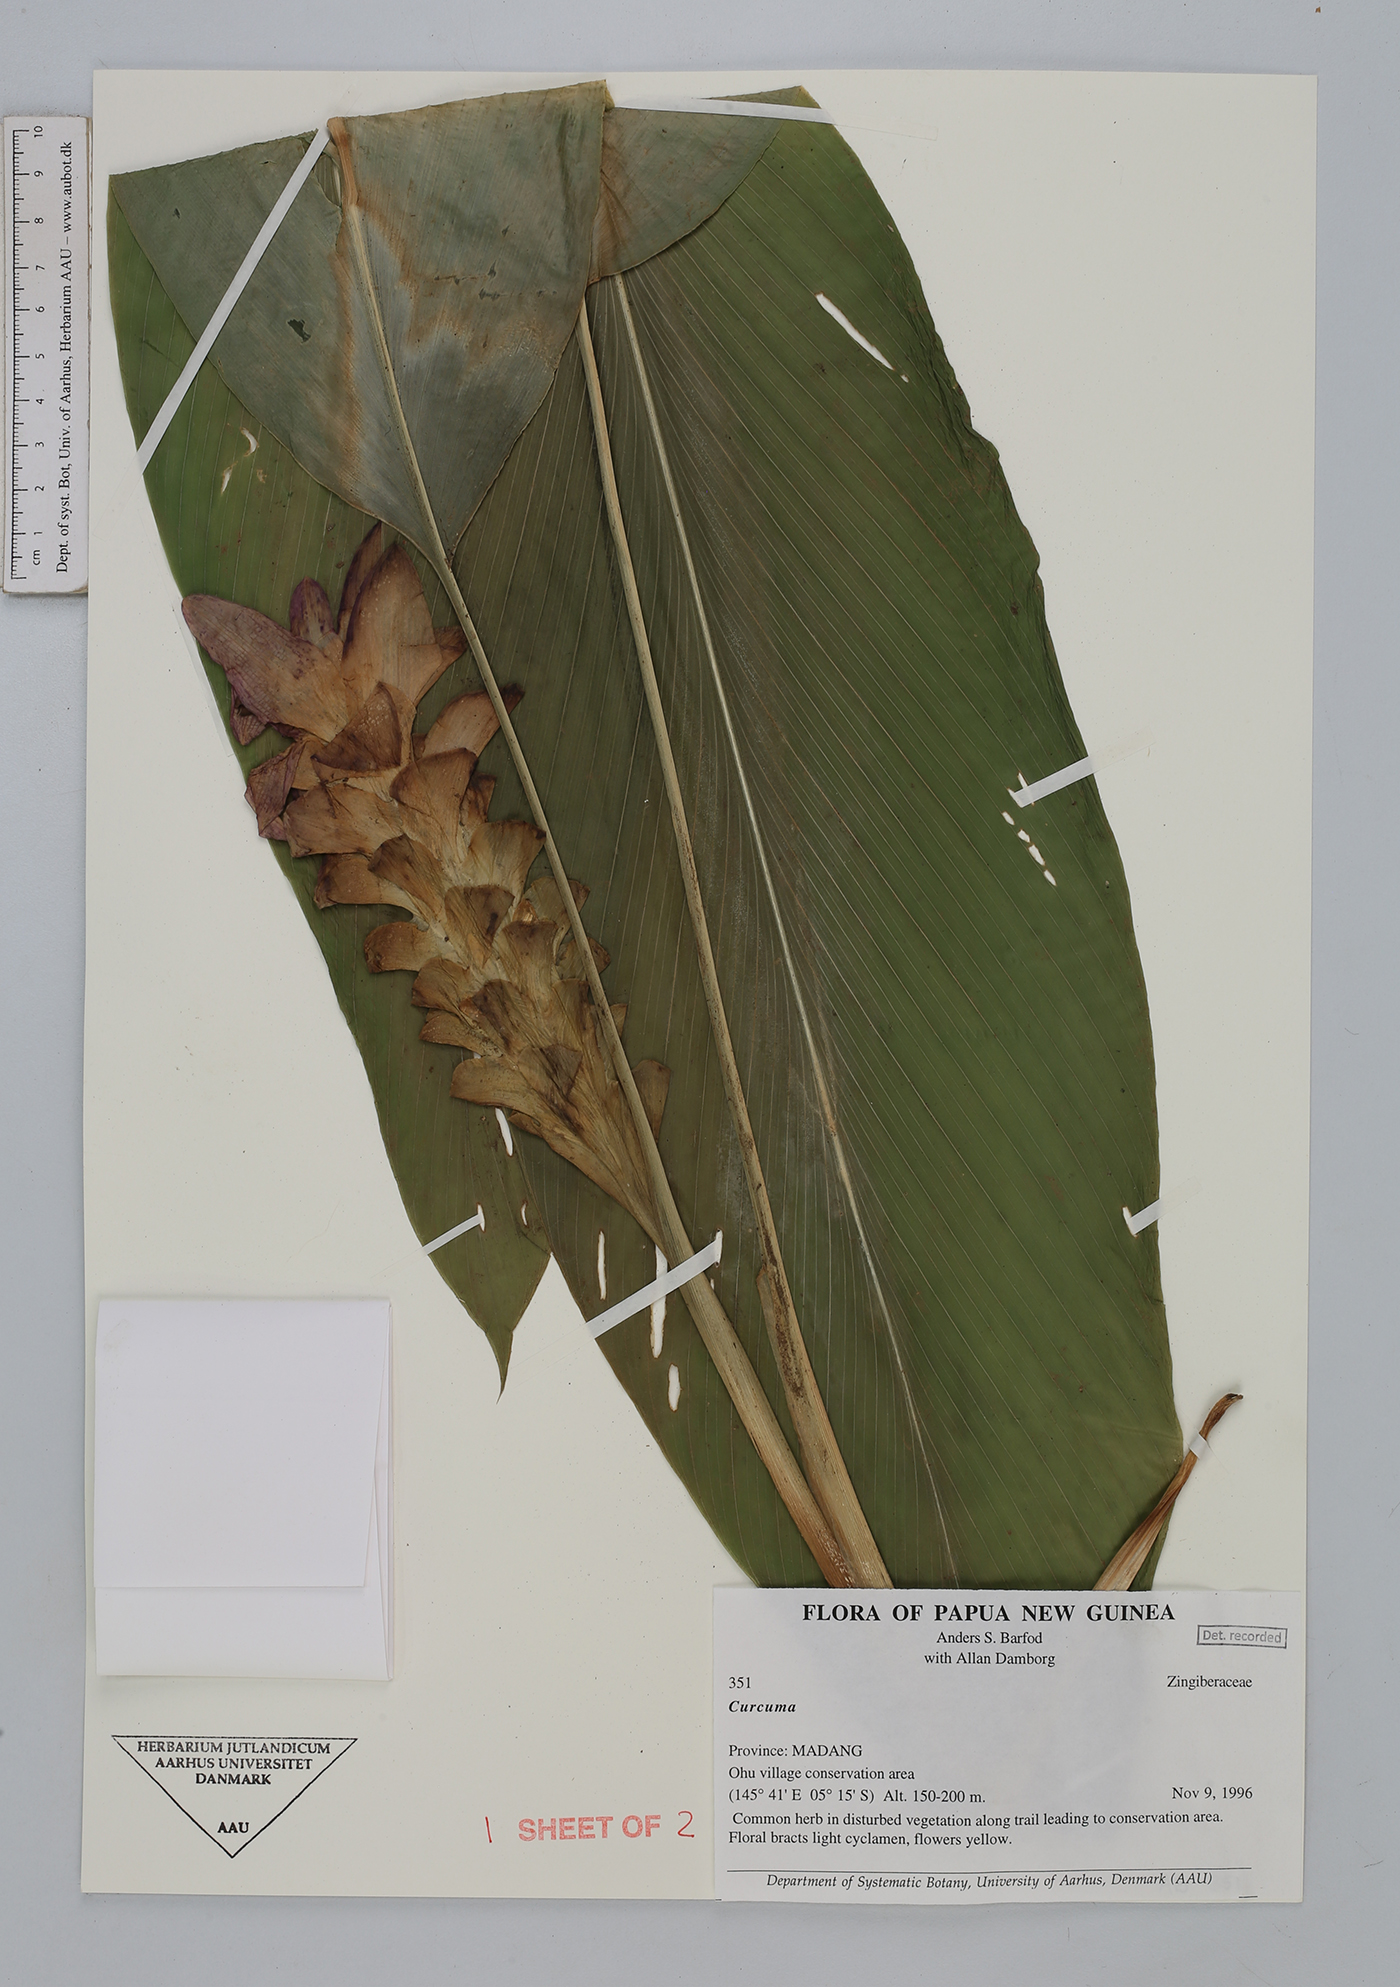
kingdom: Plantae
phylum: Tracheophyta
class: Liliopsida
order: Zingiberales
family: Zingiberaceae
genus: Curcuma
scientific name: Curcuma
